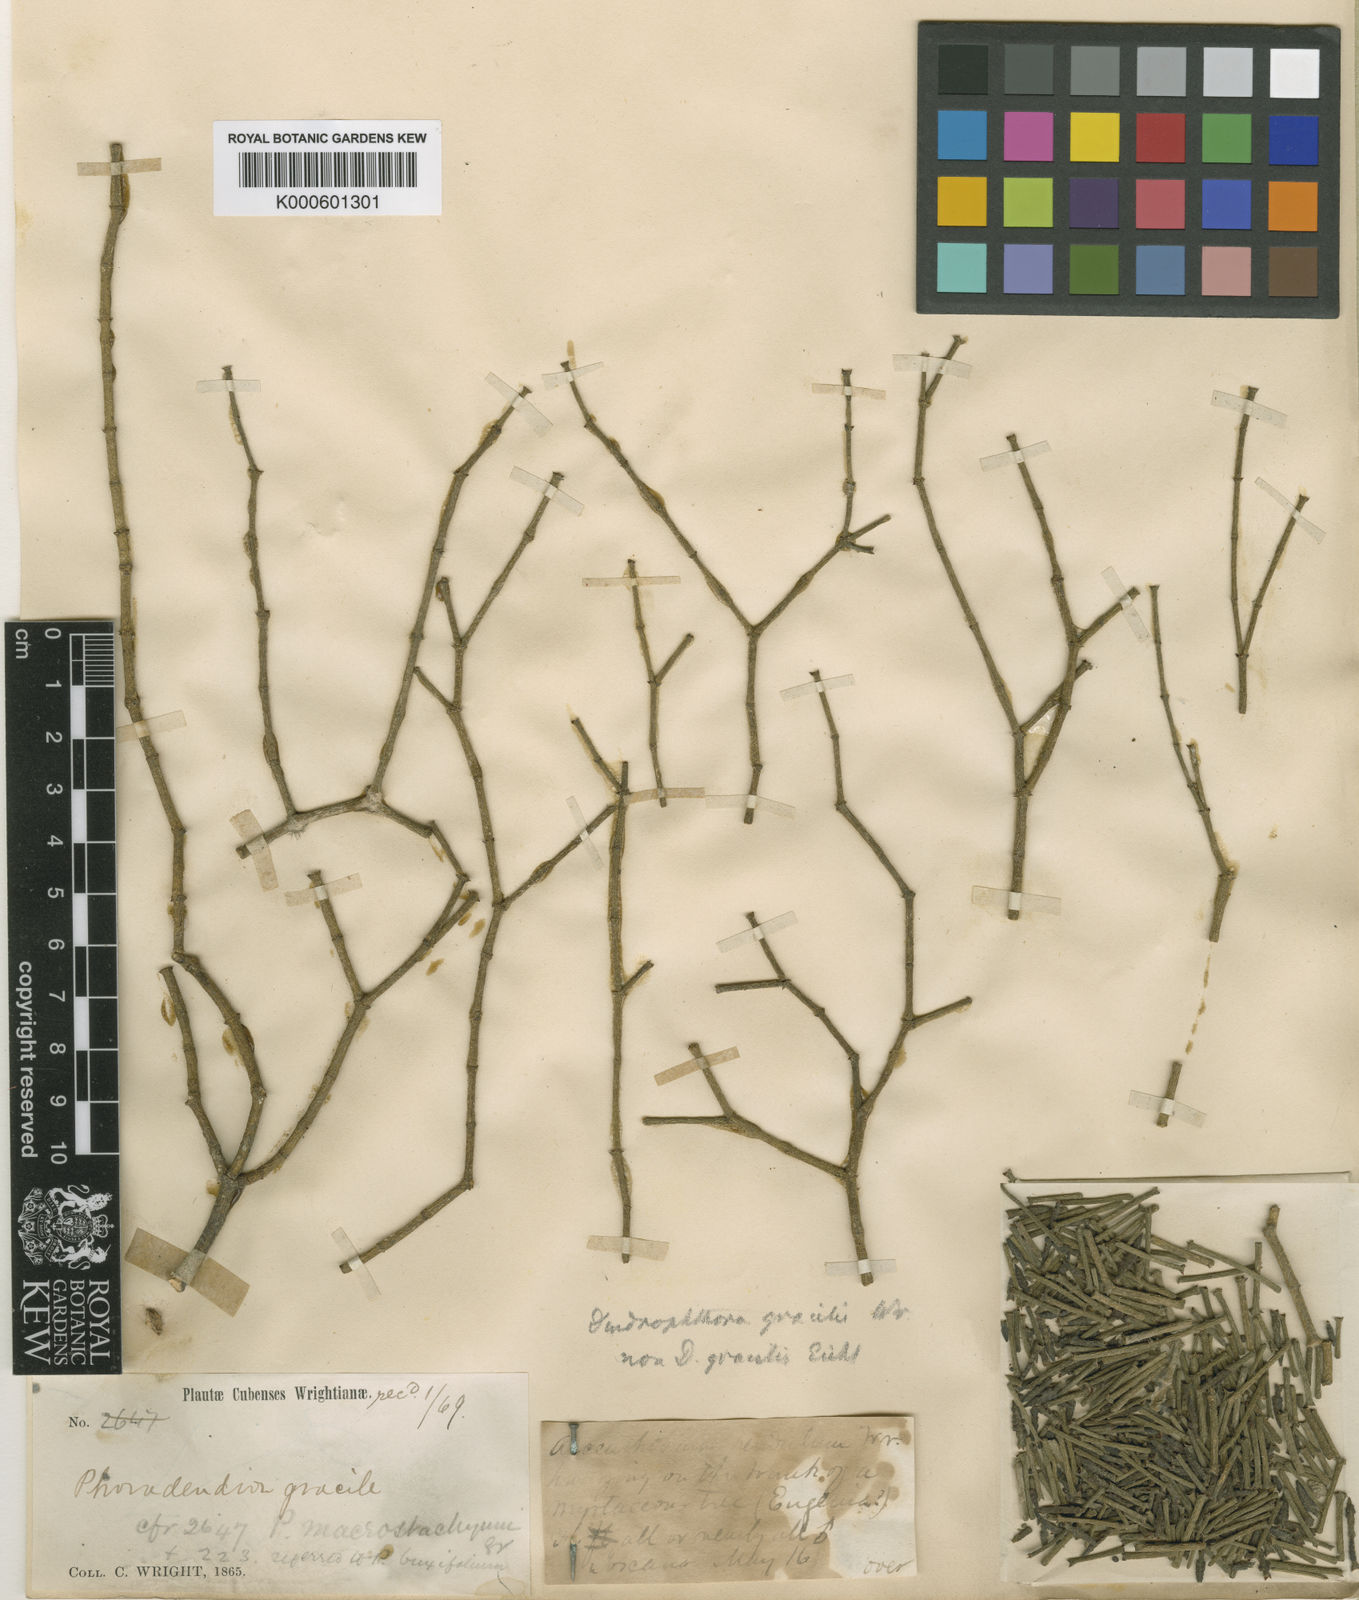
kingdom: Plantae
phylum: Tracheophyta
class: Magnoliopsida
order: Santalales
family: Viscaceae
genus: Dendrophthora
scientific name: Dendrophthora
